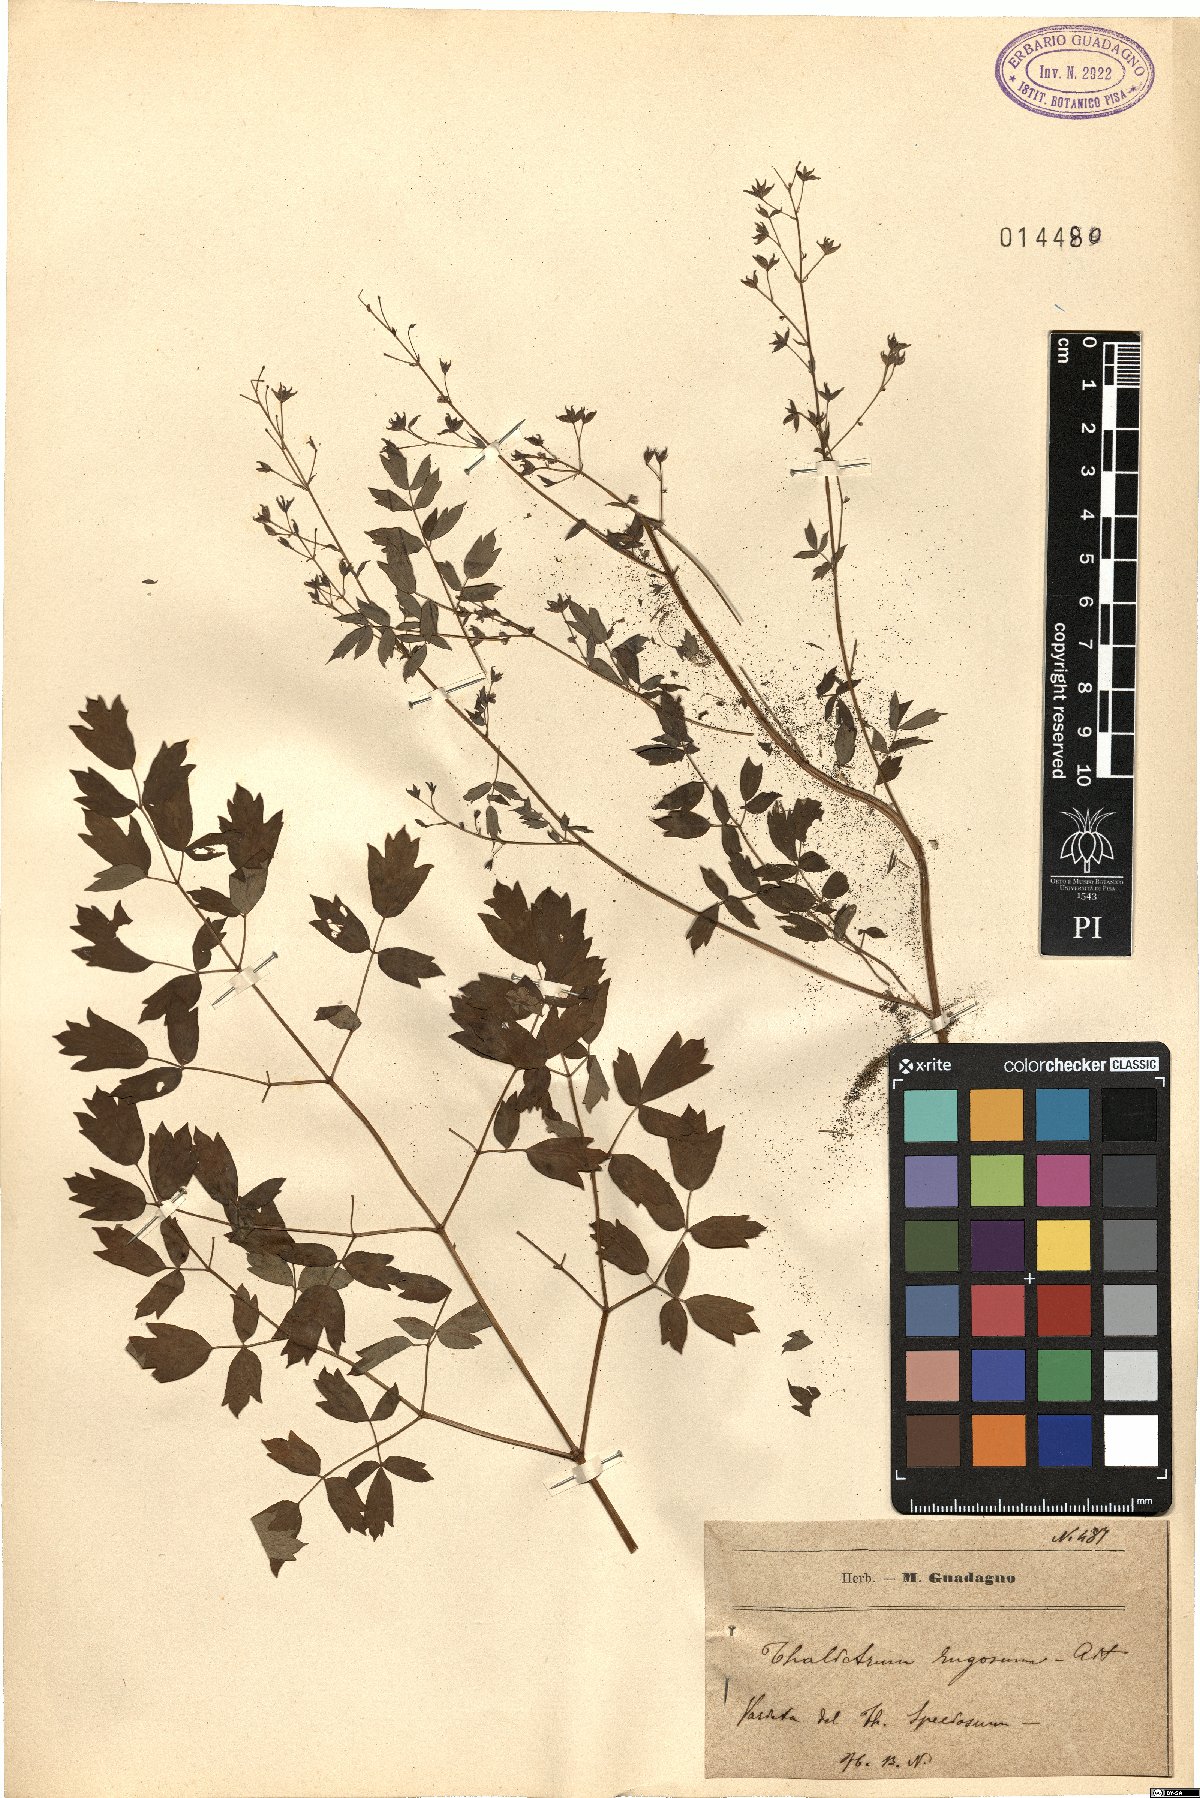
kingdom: Plantae
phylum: Tracheophyta
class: Magnoliopsida
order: Ranunculales
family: Ranunculaceae
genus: Thalictrum
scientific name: Thalictrum flavum
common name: Common meadow-rue
